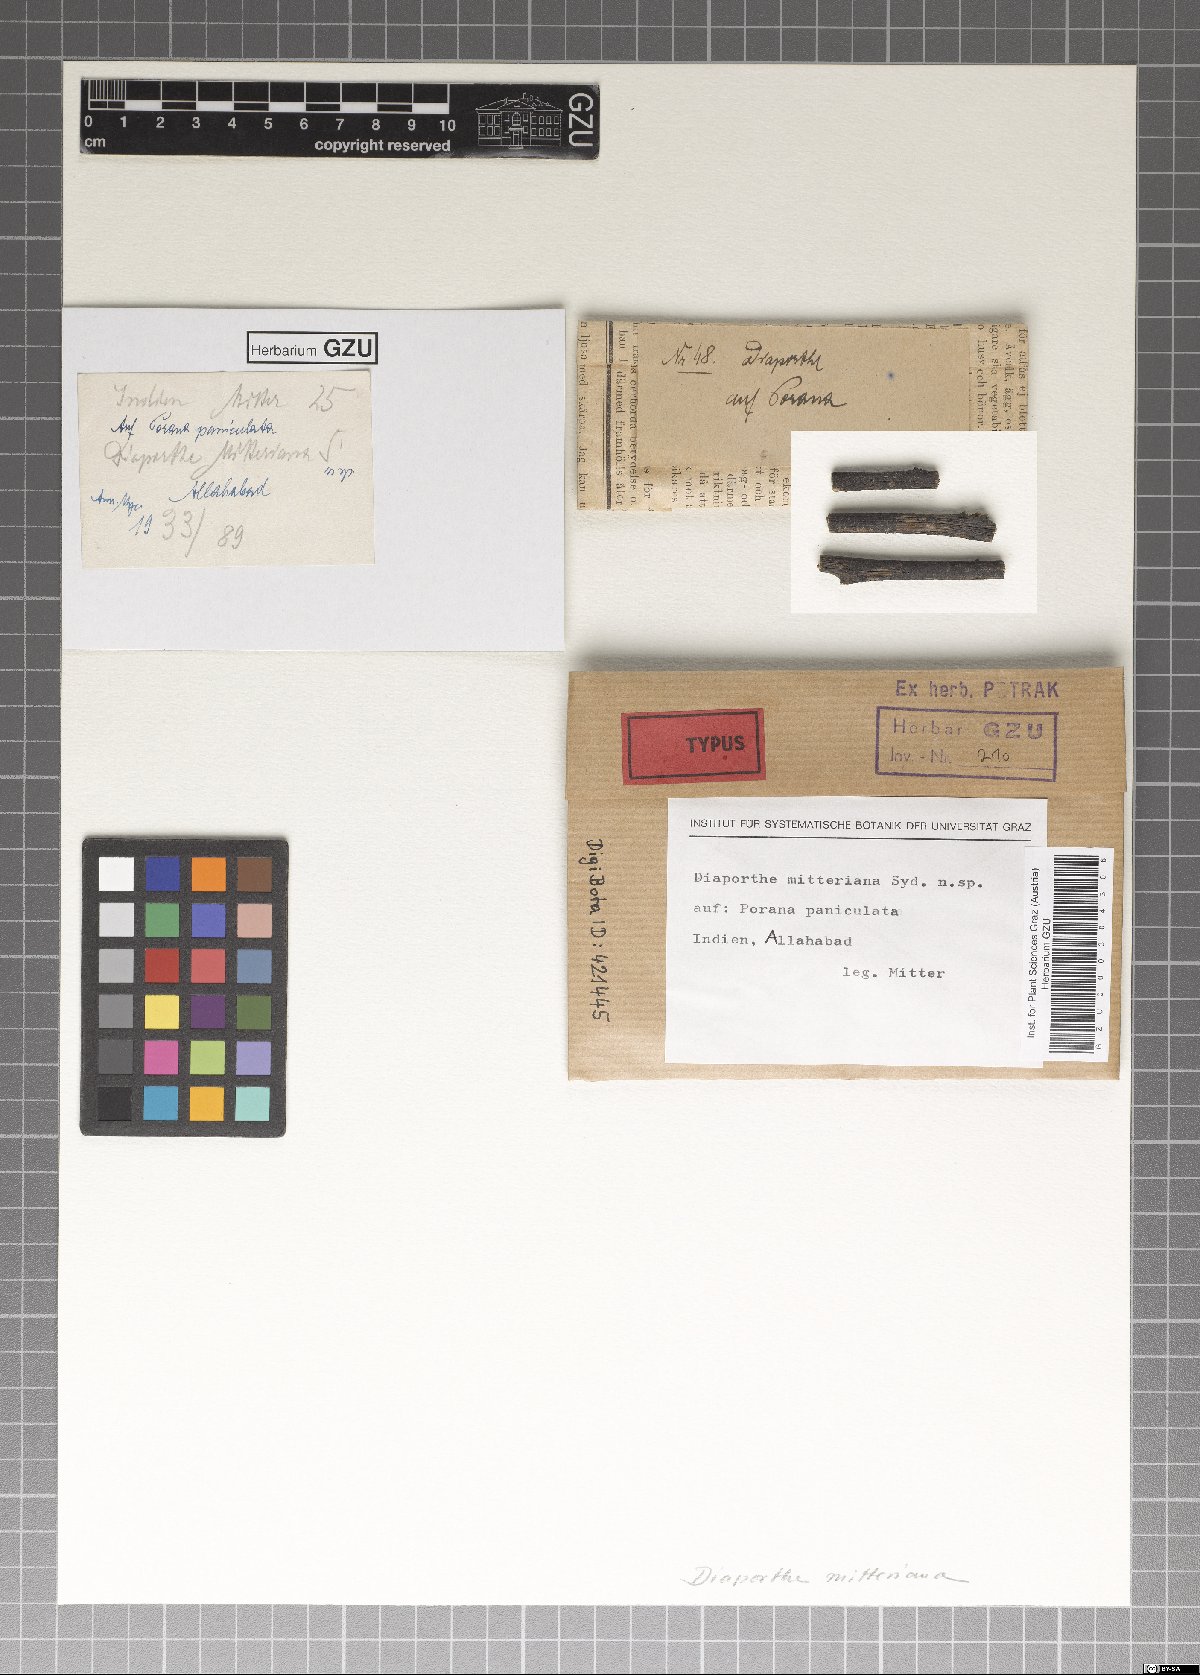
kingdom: Fungi
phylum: Ascomycota
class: Sordariomycetes
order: Diaporthales
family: Diaporthaceae
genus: Diaporthe
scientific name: Diaporthe mitteriana
